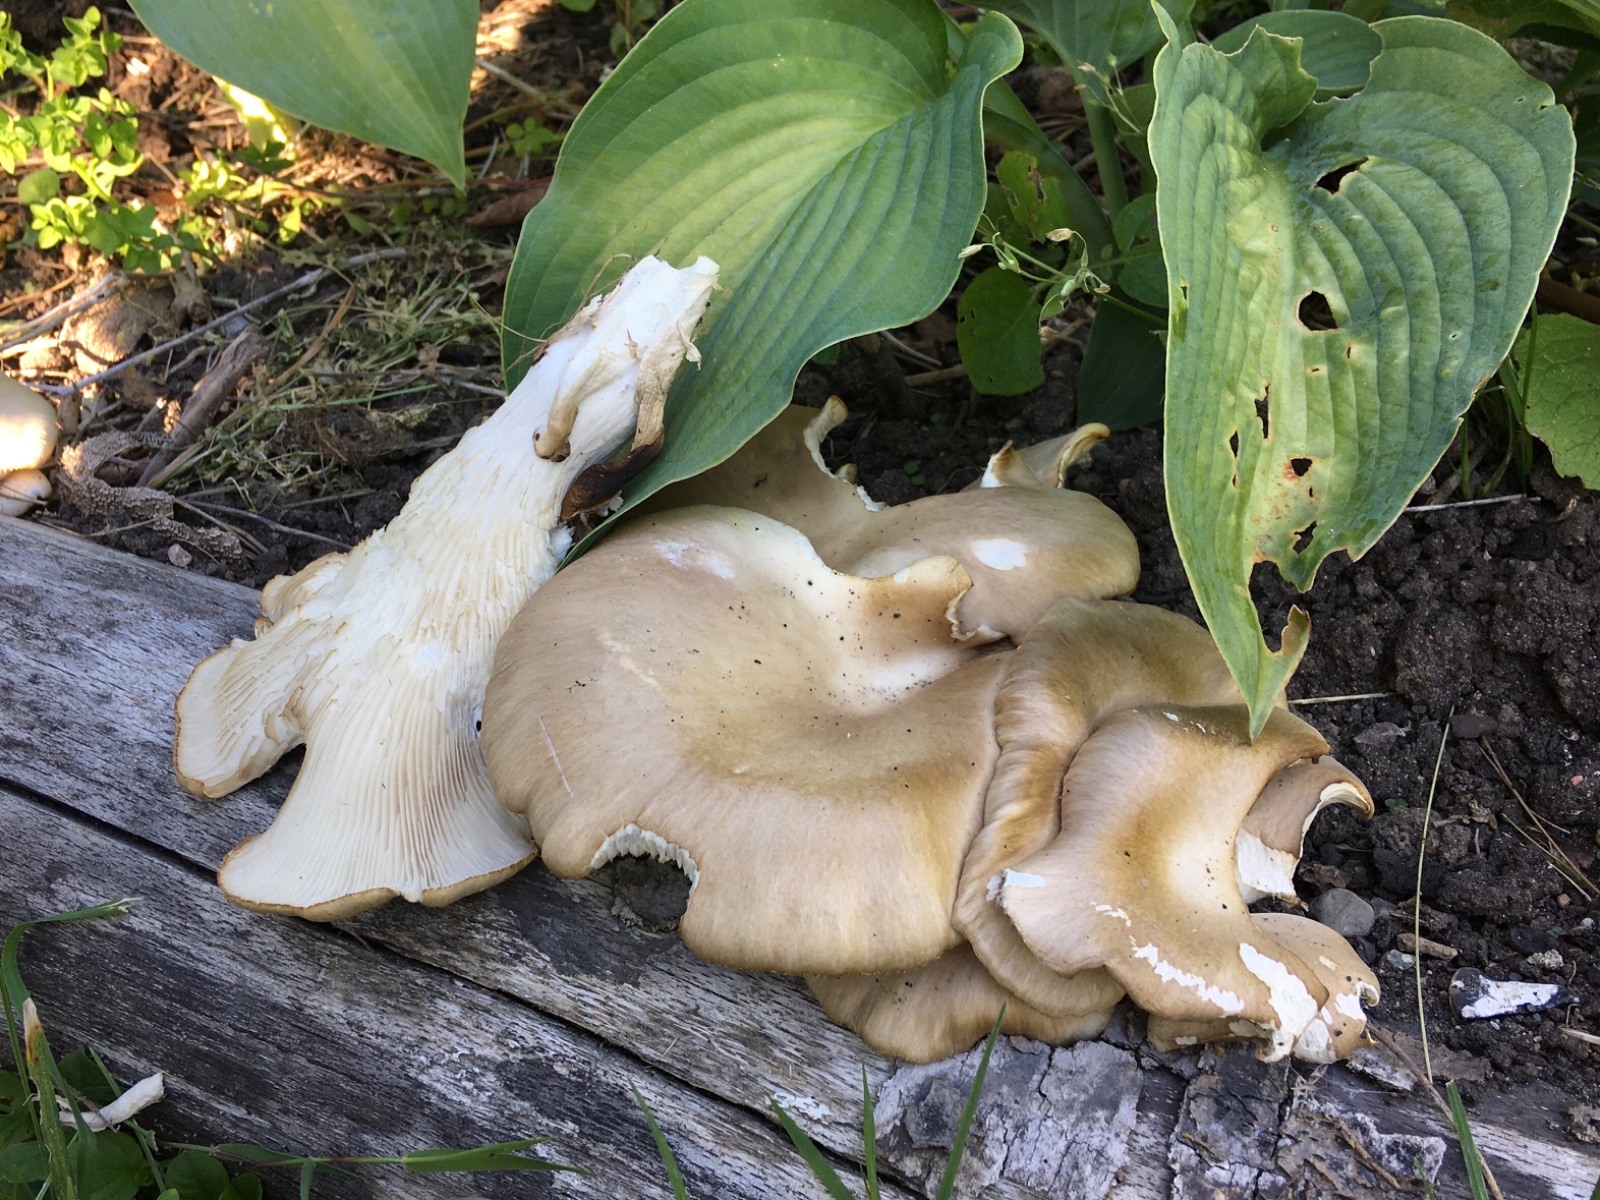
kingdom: Fungi
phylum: Basidiomycota
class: Agaricomycetes
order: Agaricales
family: Pleurotaceae
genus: Pleurotus
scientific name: Pleurotus pulmonarius
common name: sommer-østershat
